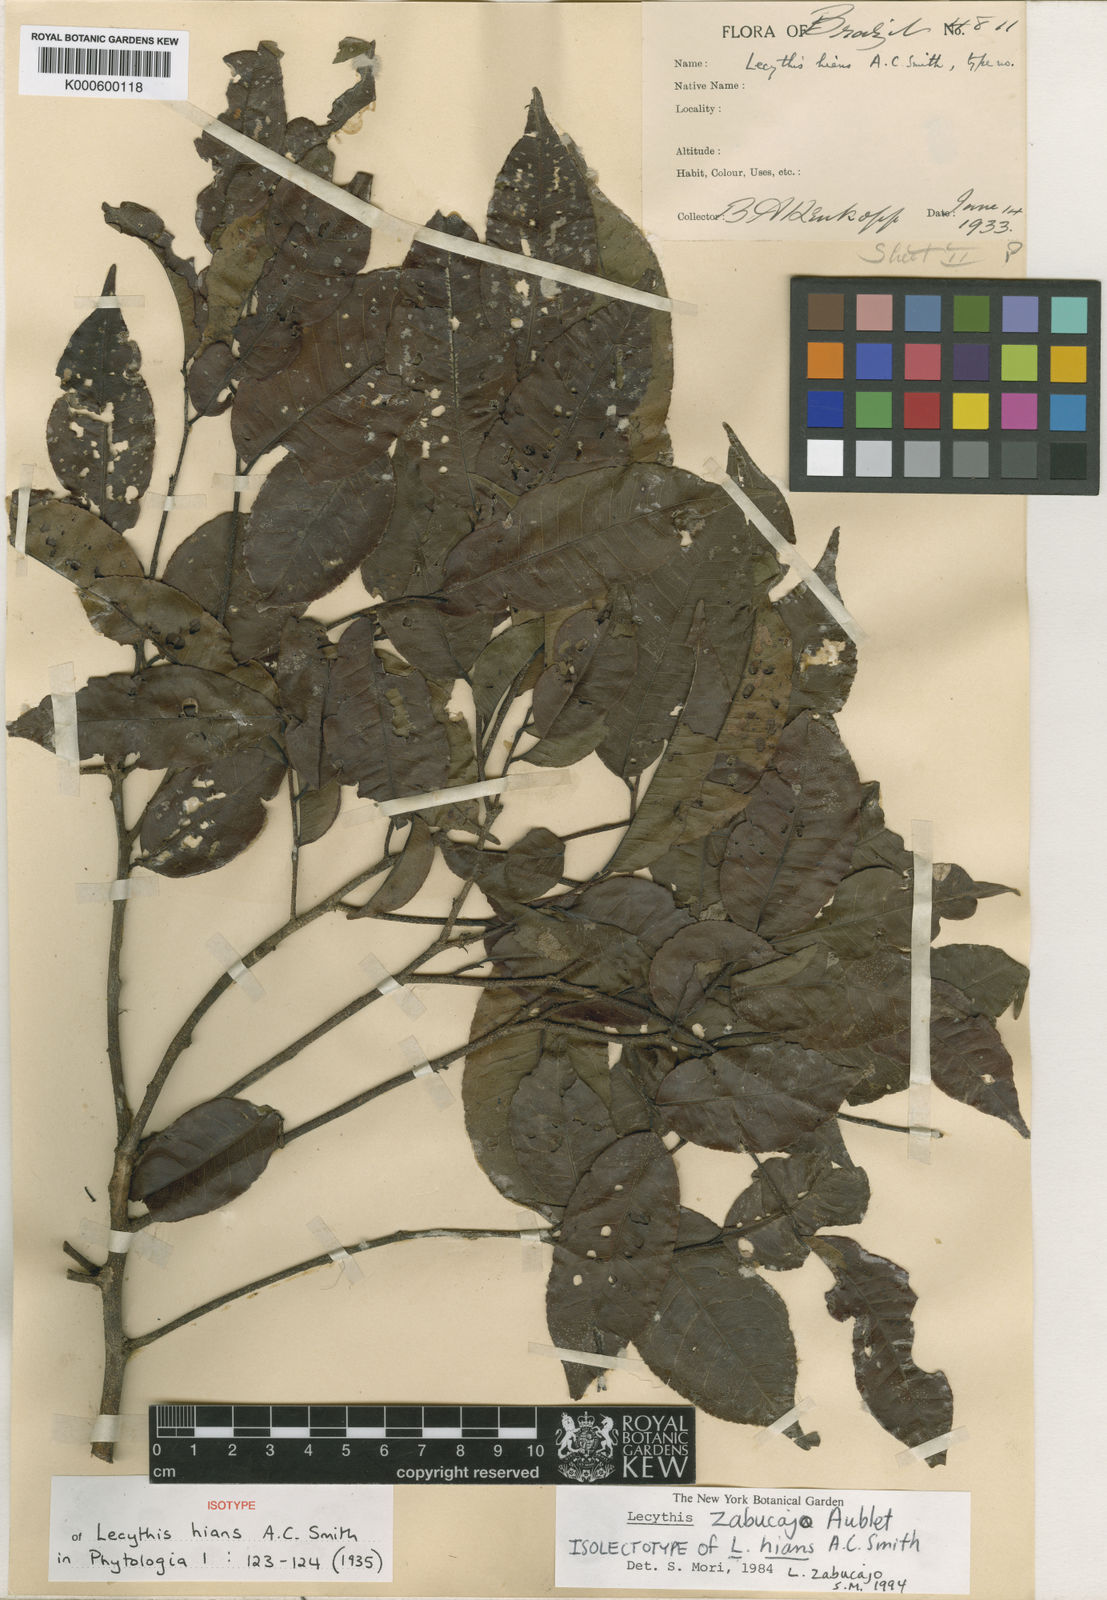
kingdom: Plantae
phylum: Tracheophyta
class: Magnoliopsida
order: Ericales
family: Lecythidaceae
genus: Lecythis
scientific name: Lecythis zabucajo
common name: Paradise-nut
